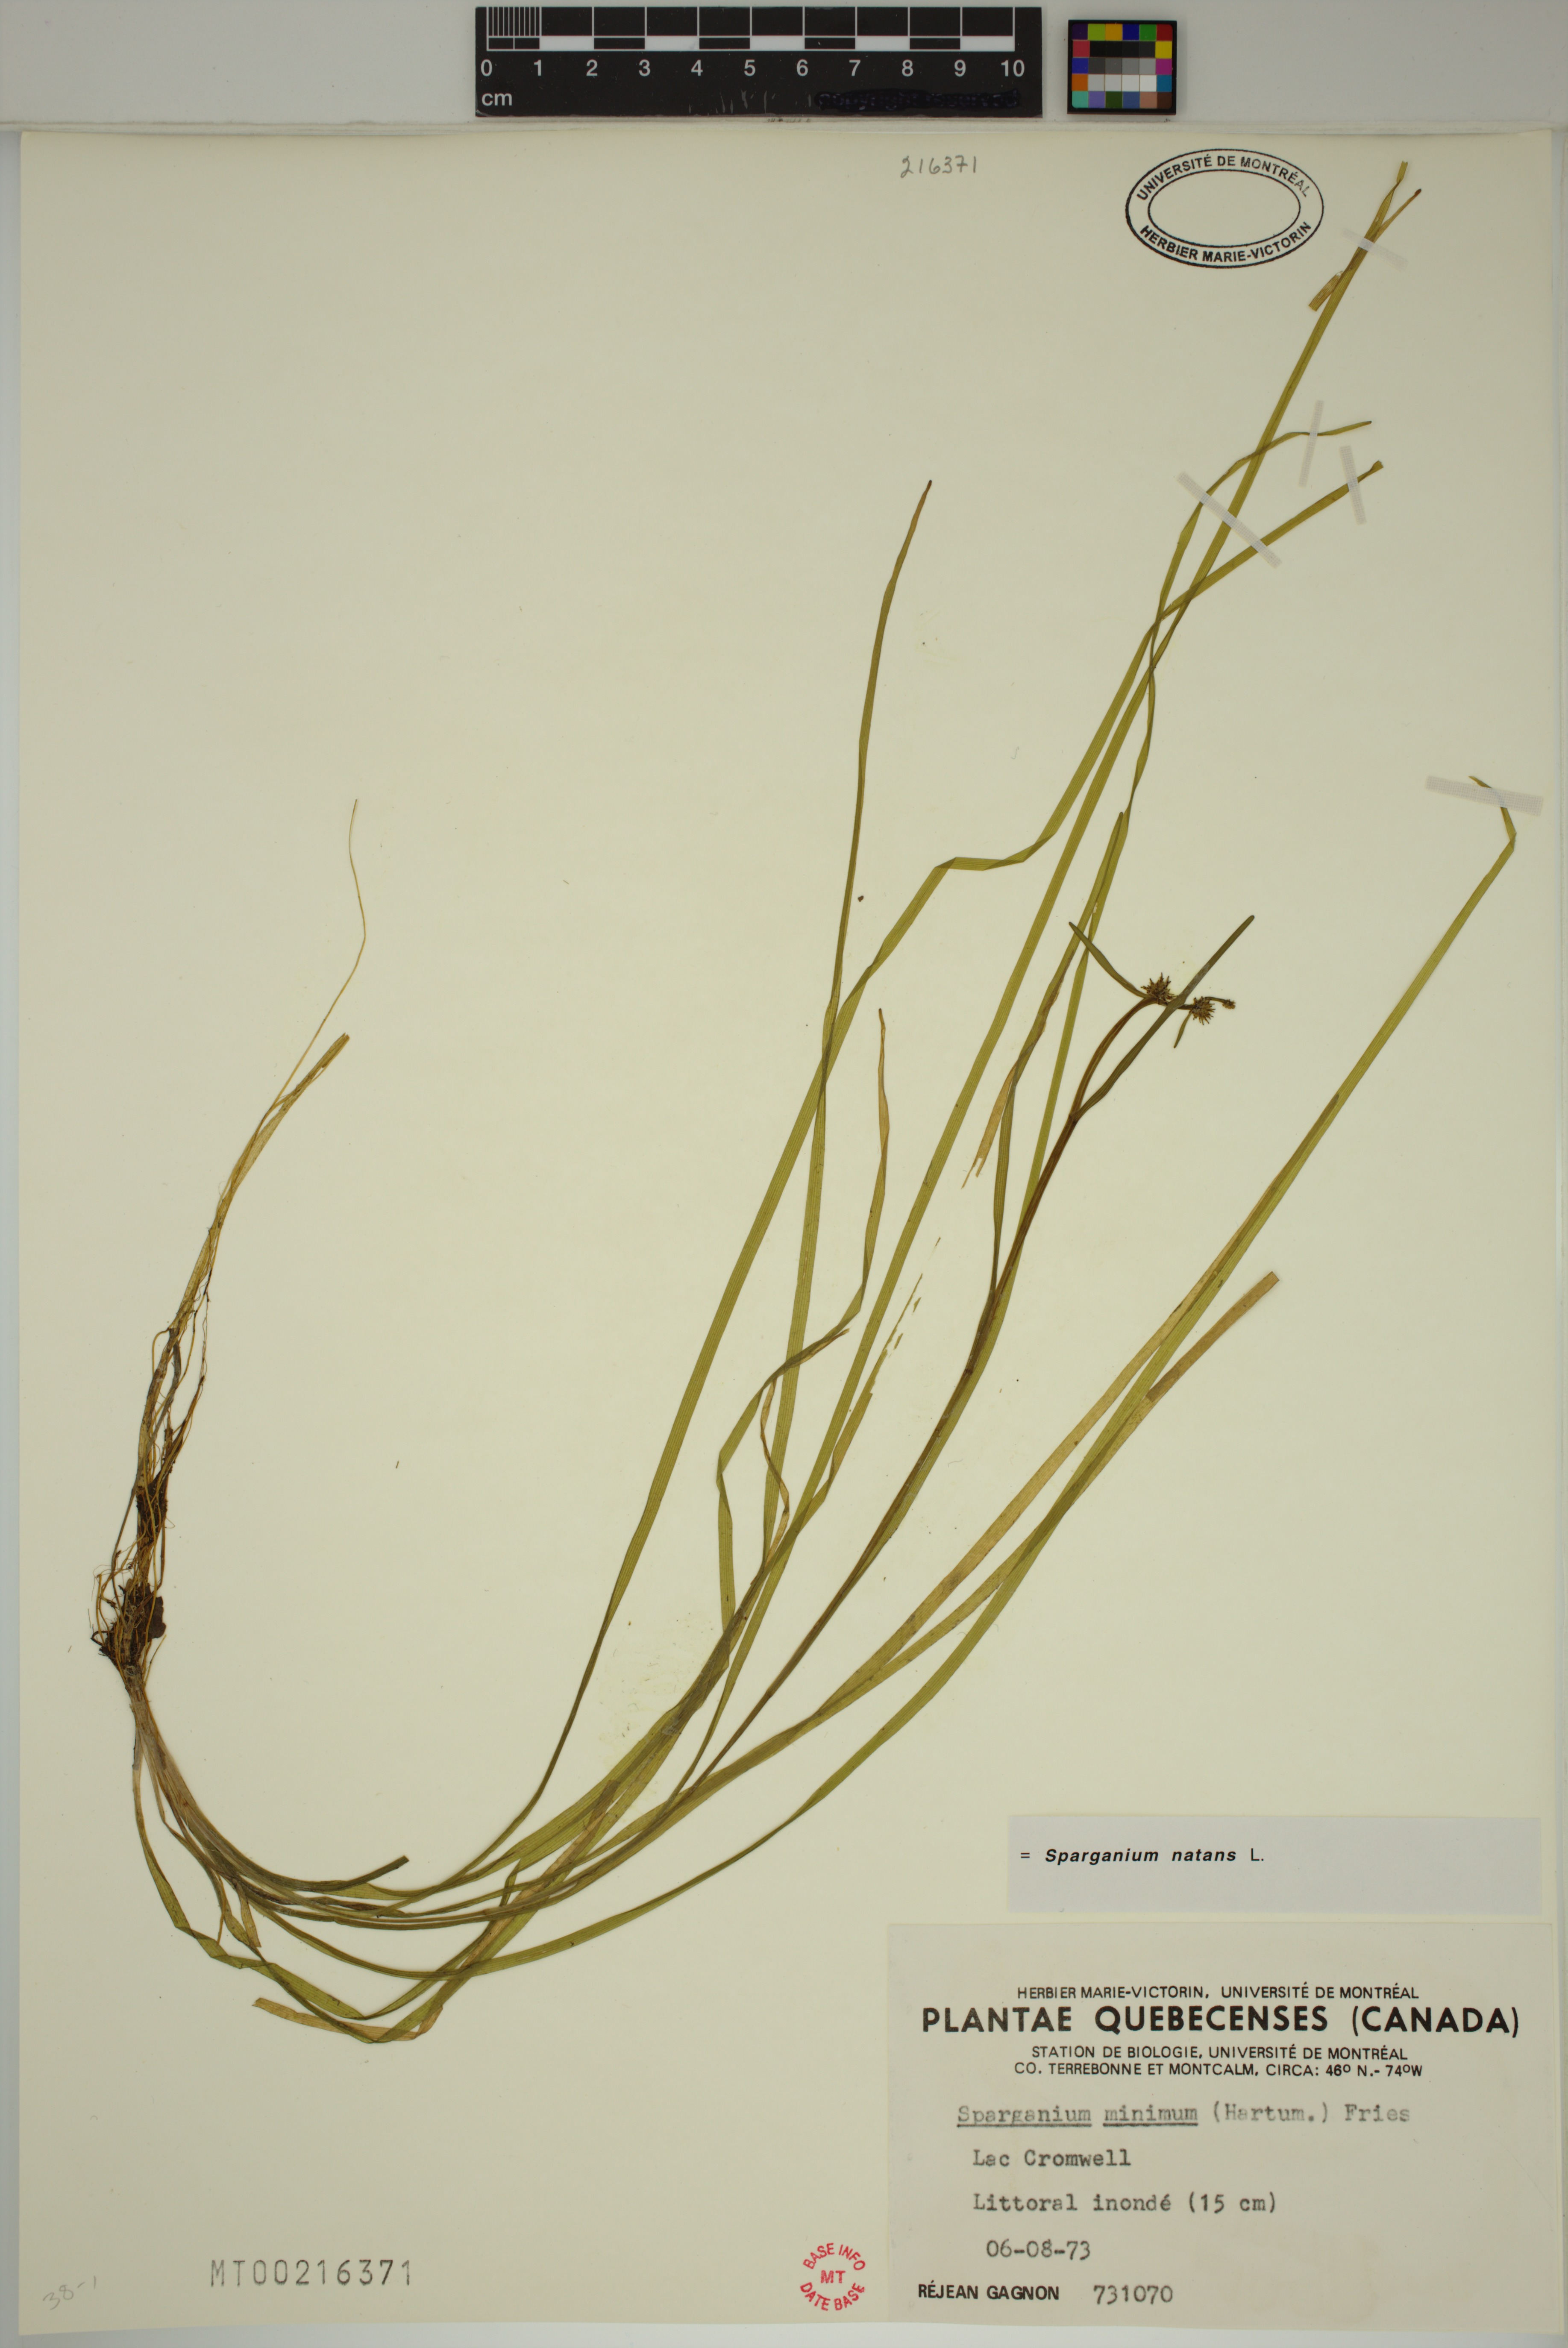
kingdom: Plantae
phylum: Tracheophyta
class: Liliopsida
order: Poales
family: Typhaceae
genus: Sparganium
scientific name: Sparganium natans
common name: Least bur-reed
